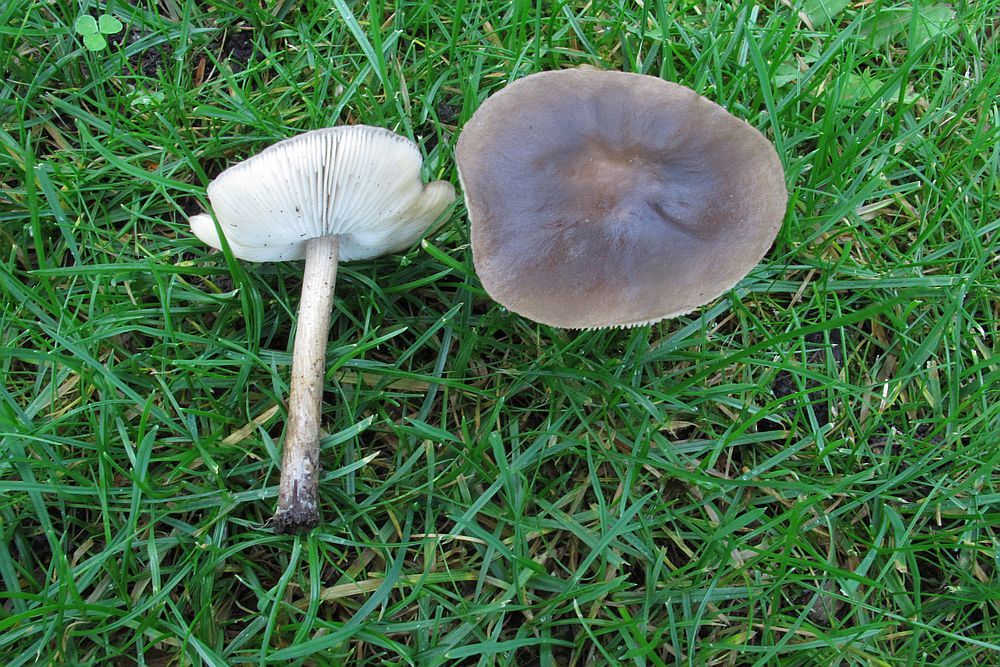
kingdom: Fungi
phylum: Basidiomycota
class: Agaricomycetes
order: Agaricales
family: Tricholomataceae
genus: Melanoleuca
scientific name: Melanoleuca polioleuca
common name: hvidbladet munkehat
